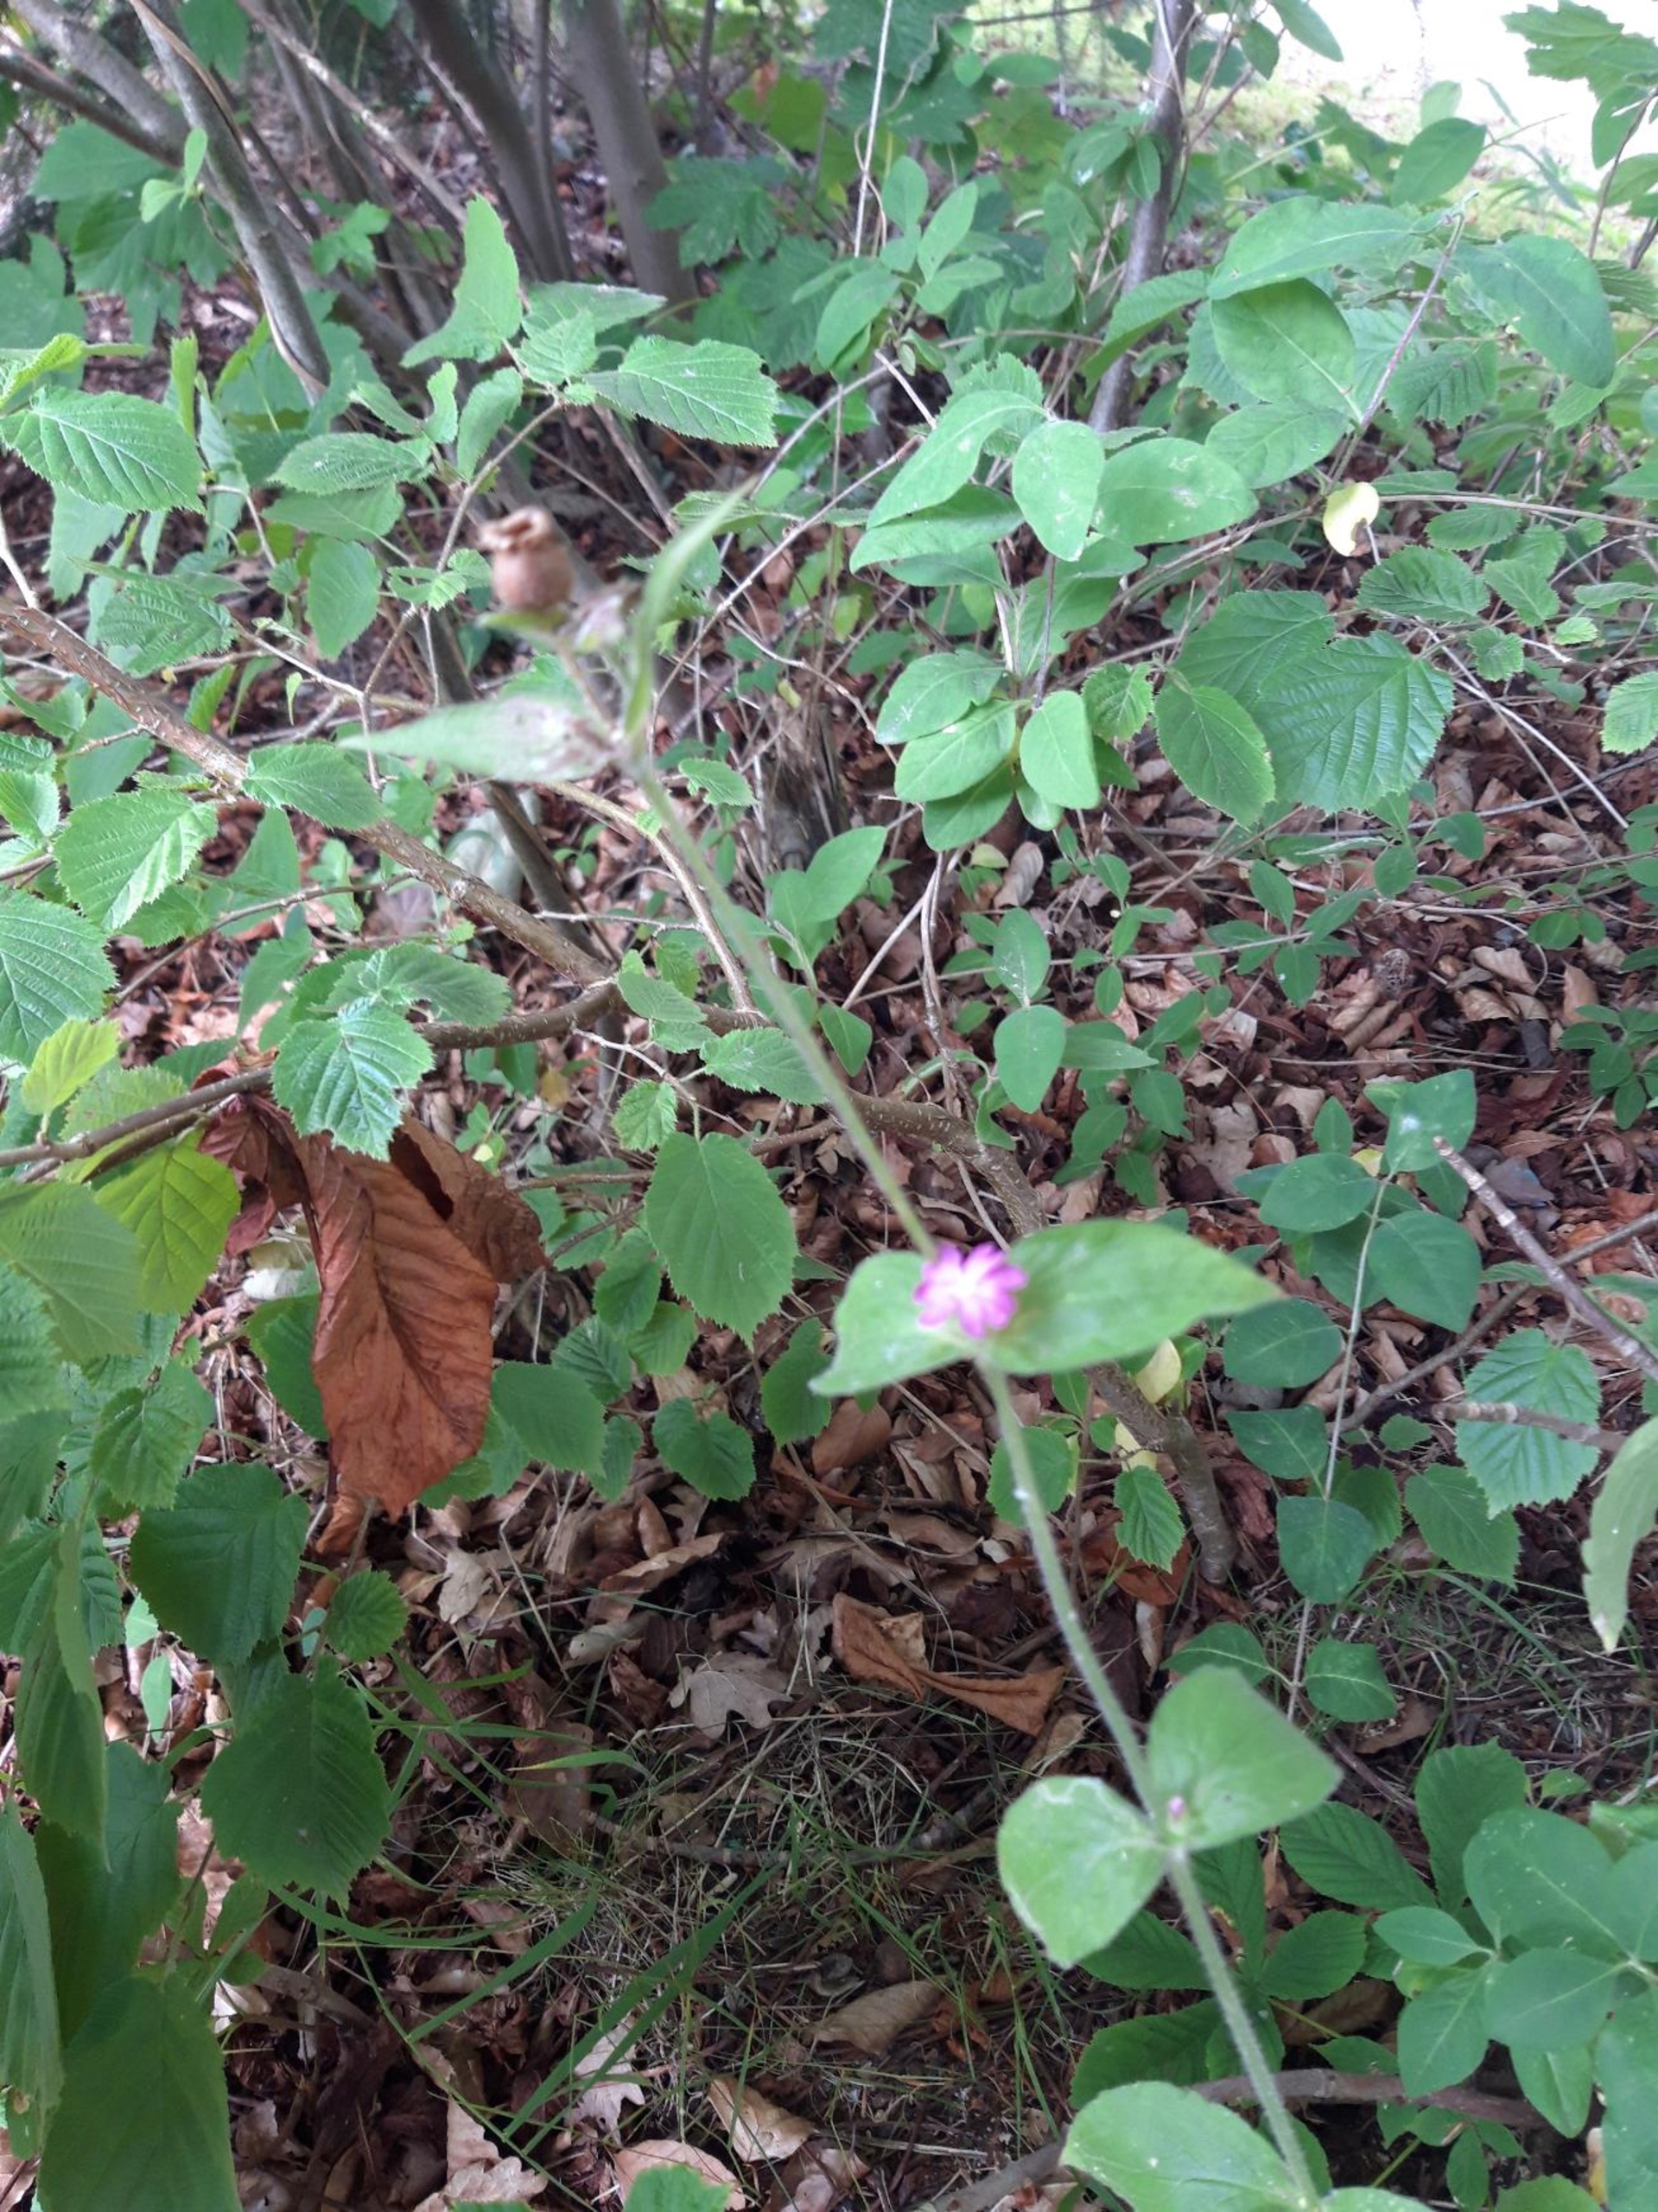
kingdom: Plantae
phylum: Tracheophyta
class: Magnoliopsida
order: Caryophyllales
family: Caryophyllaceae
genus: Silene
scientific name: Silene dioica
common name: Dagpragtstjerne
